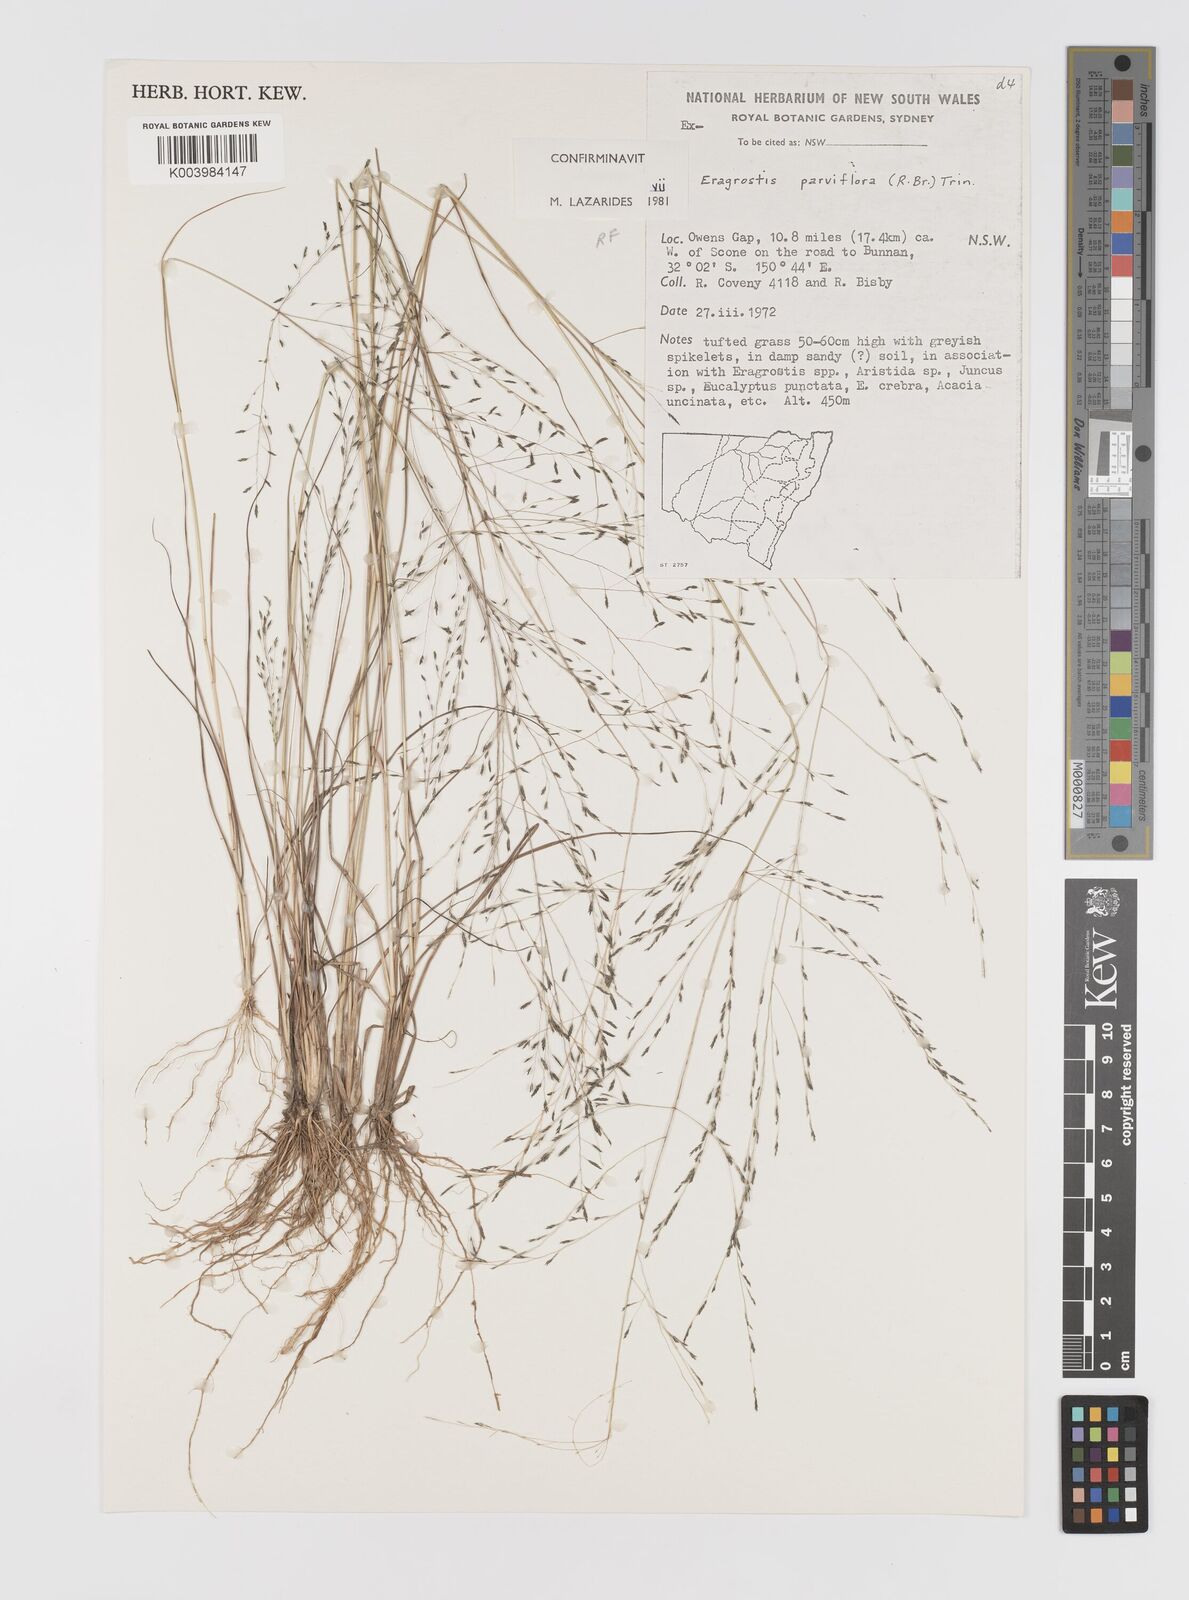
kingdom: Plantae
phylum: Tracheophyta
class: Liliopsida
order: Poales
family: Poaceae
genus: Eragrostis
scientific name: Eragrostis parviflora
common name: Weeping love-grass
